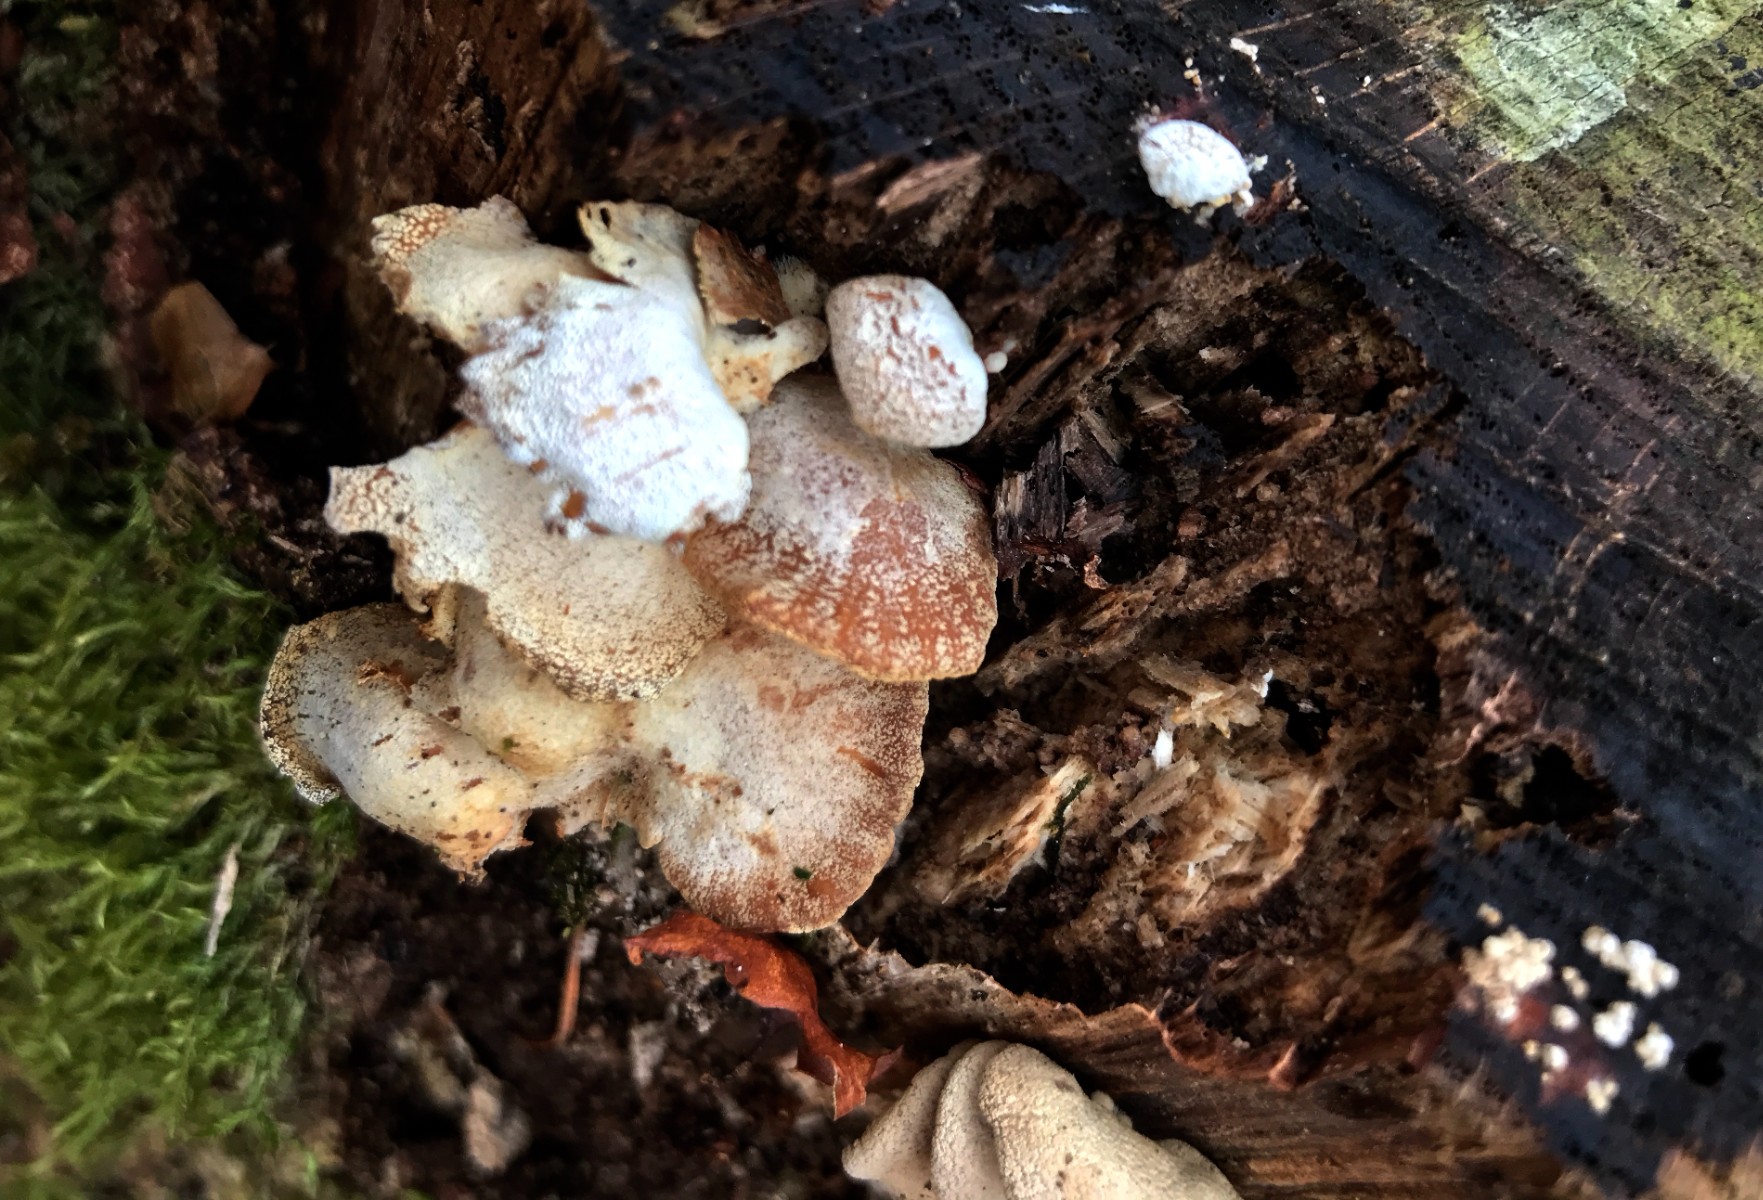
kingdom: Fungi
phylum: Basidiomycota
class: Agaricomycetes
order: Agaricales
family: Mycenaceae
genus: Panellus
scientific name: Panellus stipticus
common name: kliddet epaulethat
